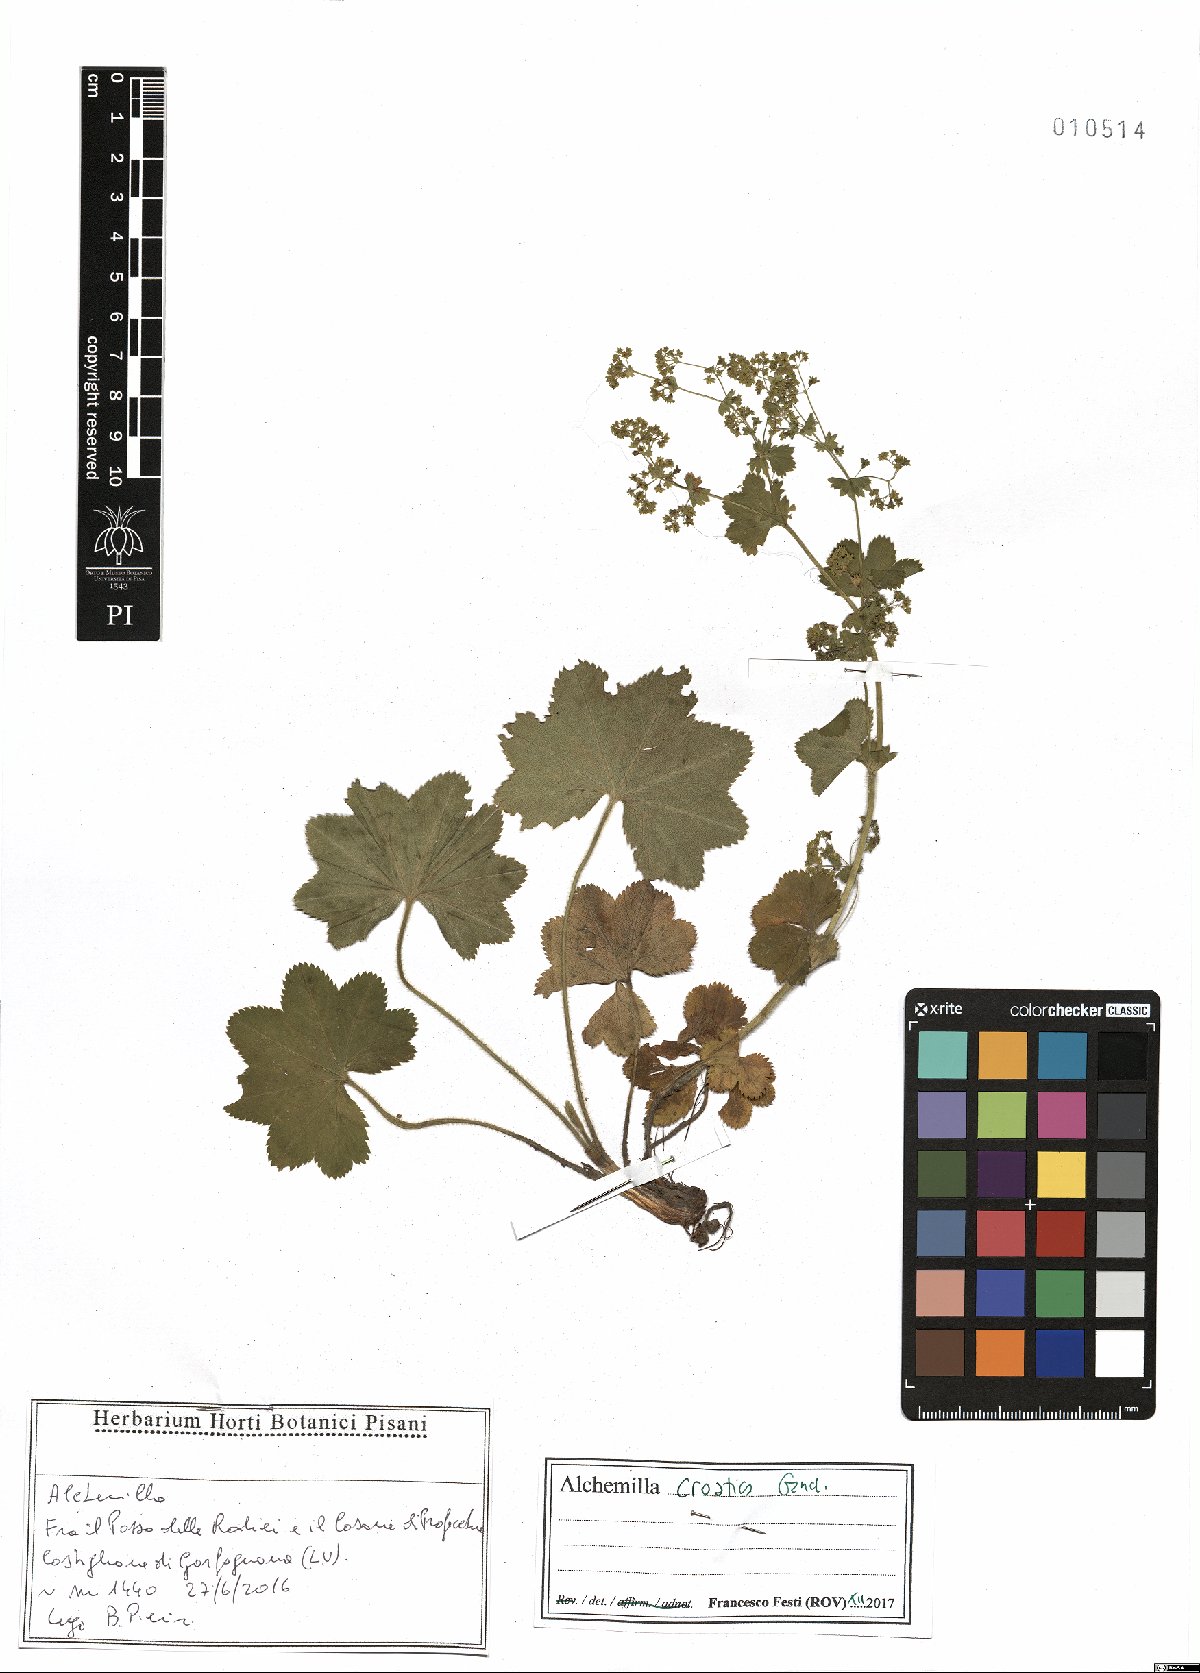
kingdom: Plantae
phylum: Tracheophyta
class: Magnoliopsida
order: Rosales
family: Rosaceae
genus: Alchemilla
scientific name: Alchemilla croatica
